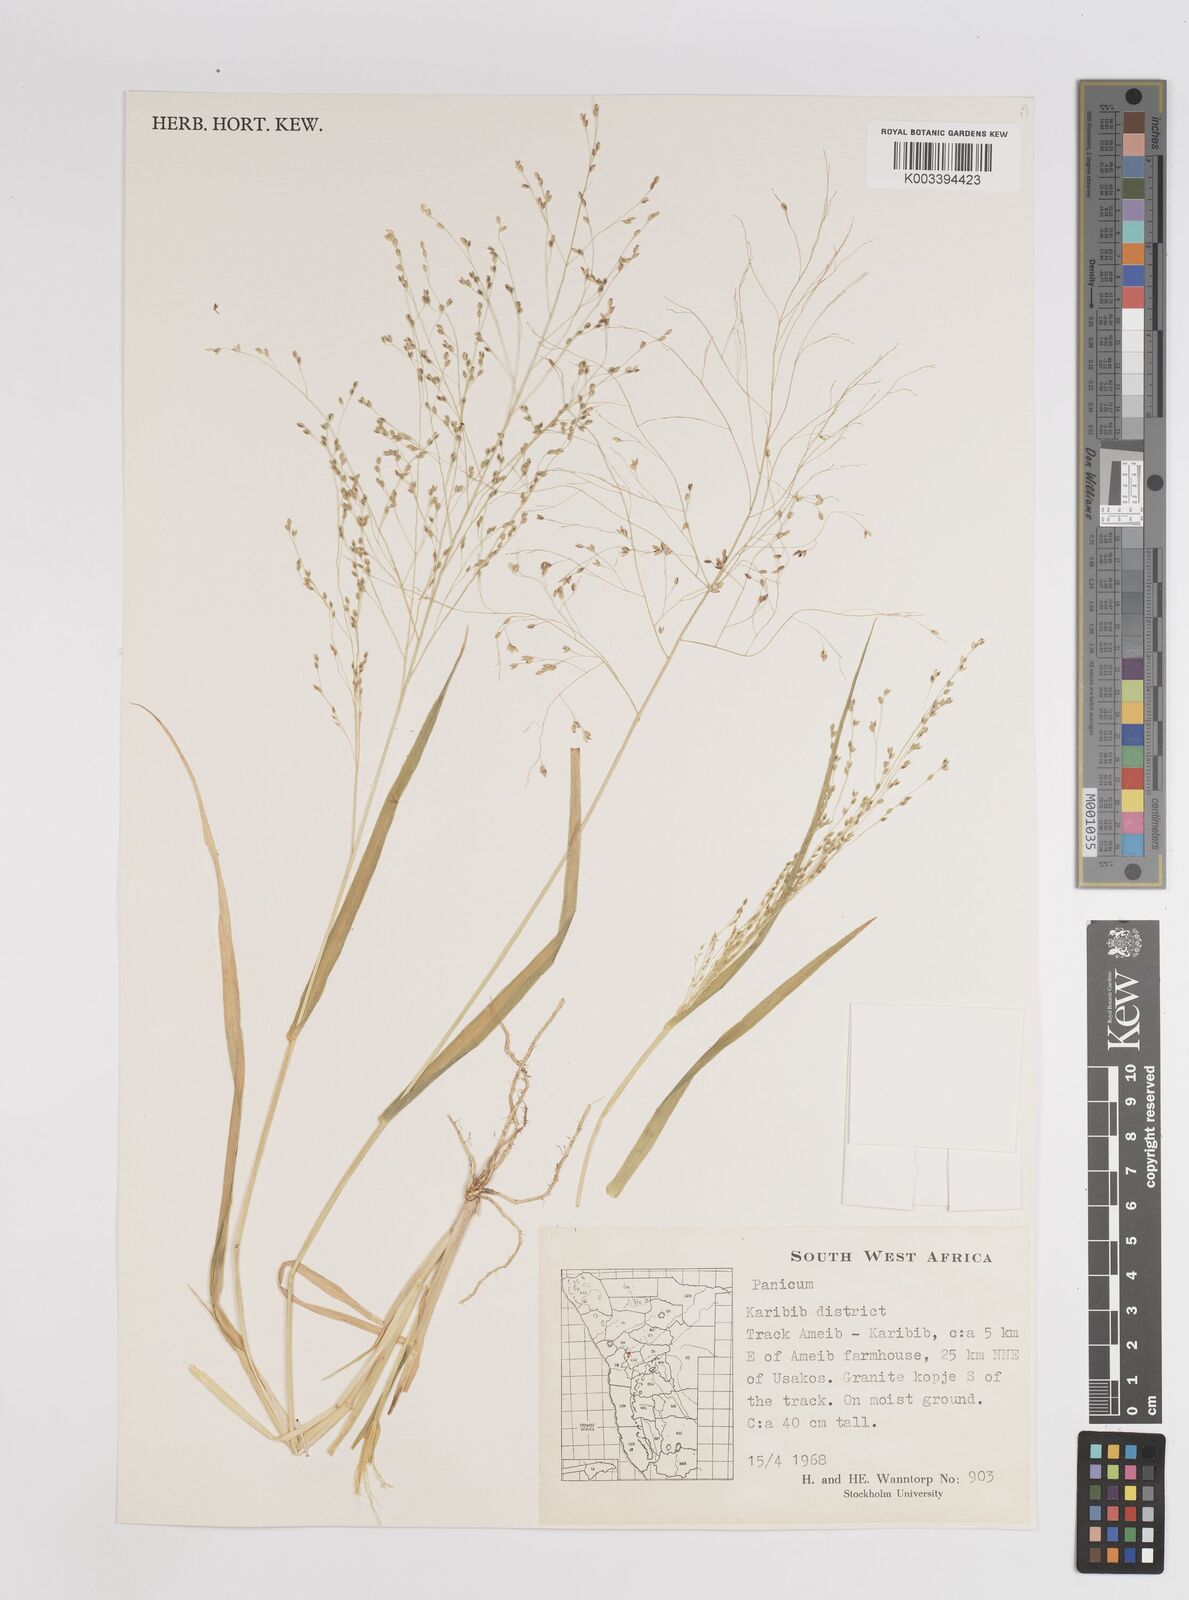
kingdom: Plantae
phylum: Tracheophyta
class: Liliopsida
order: Poales
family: Poaceae
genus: Panicum
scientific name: Panicum
